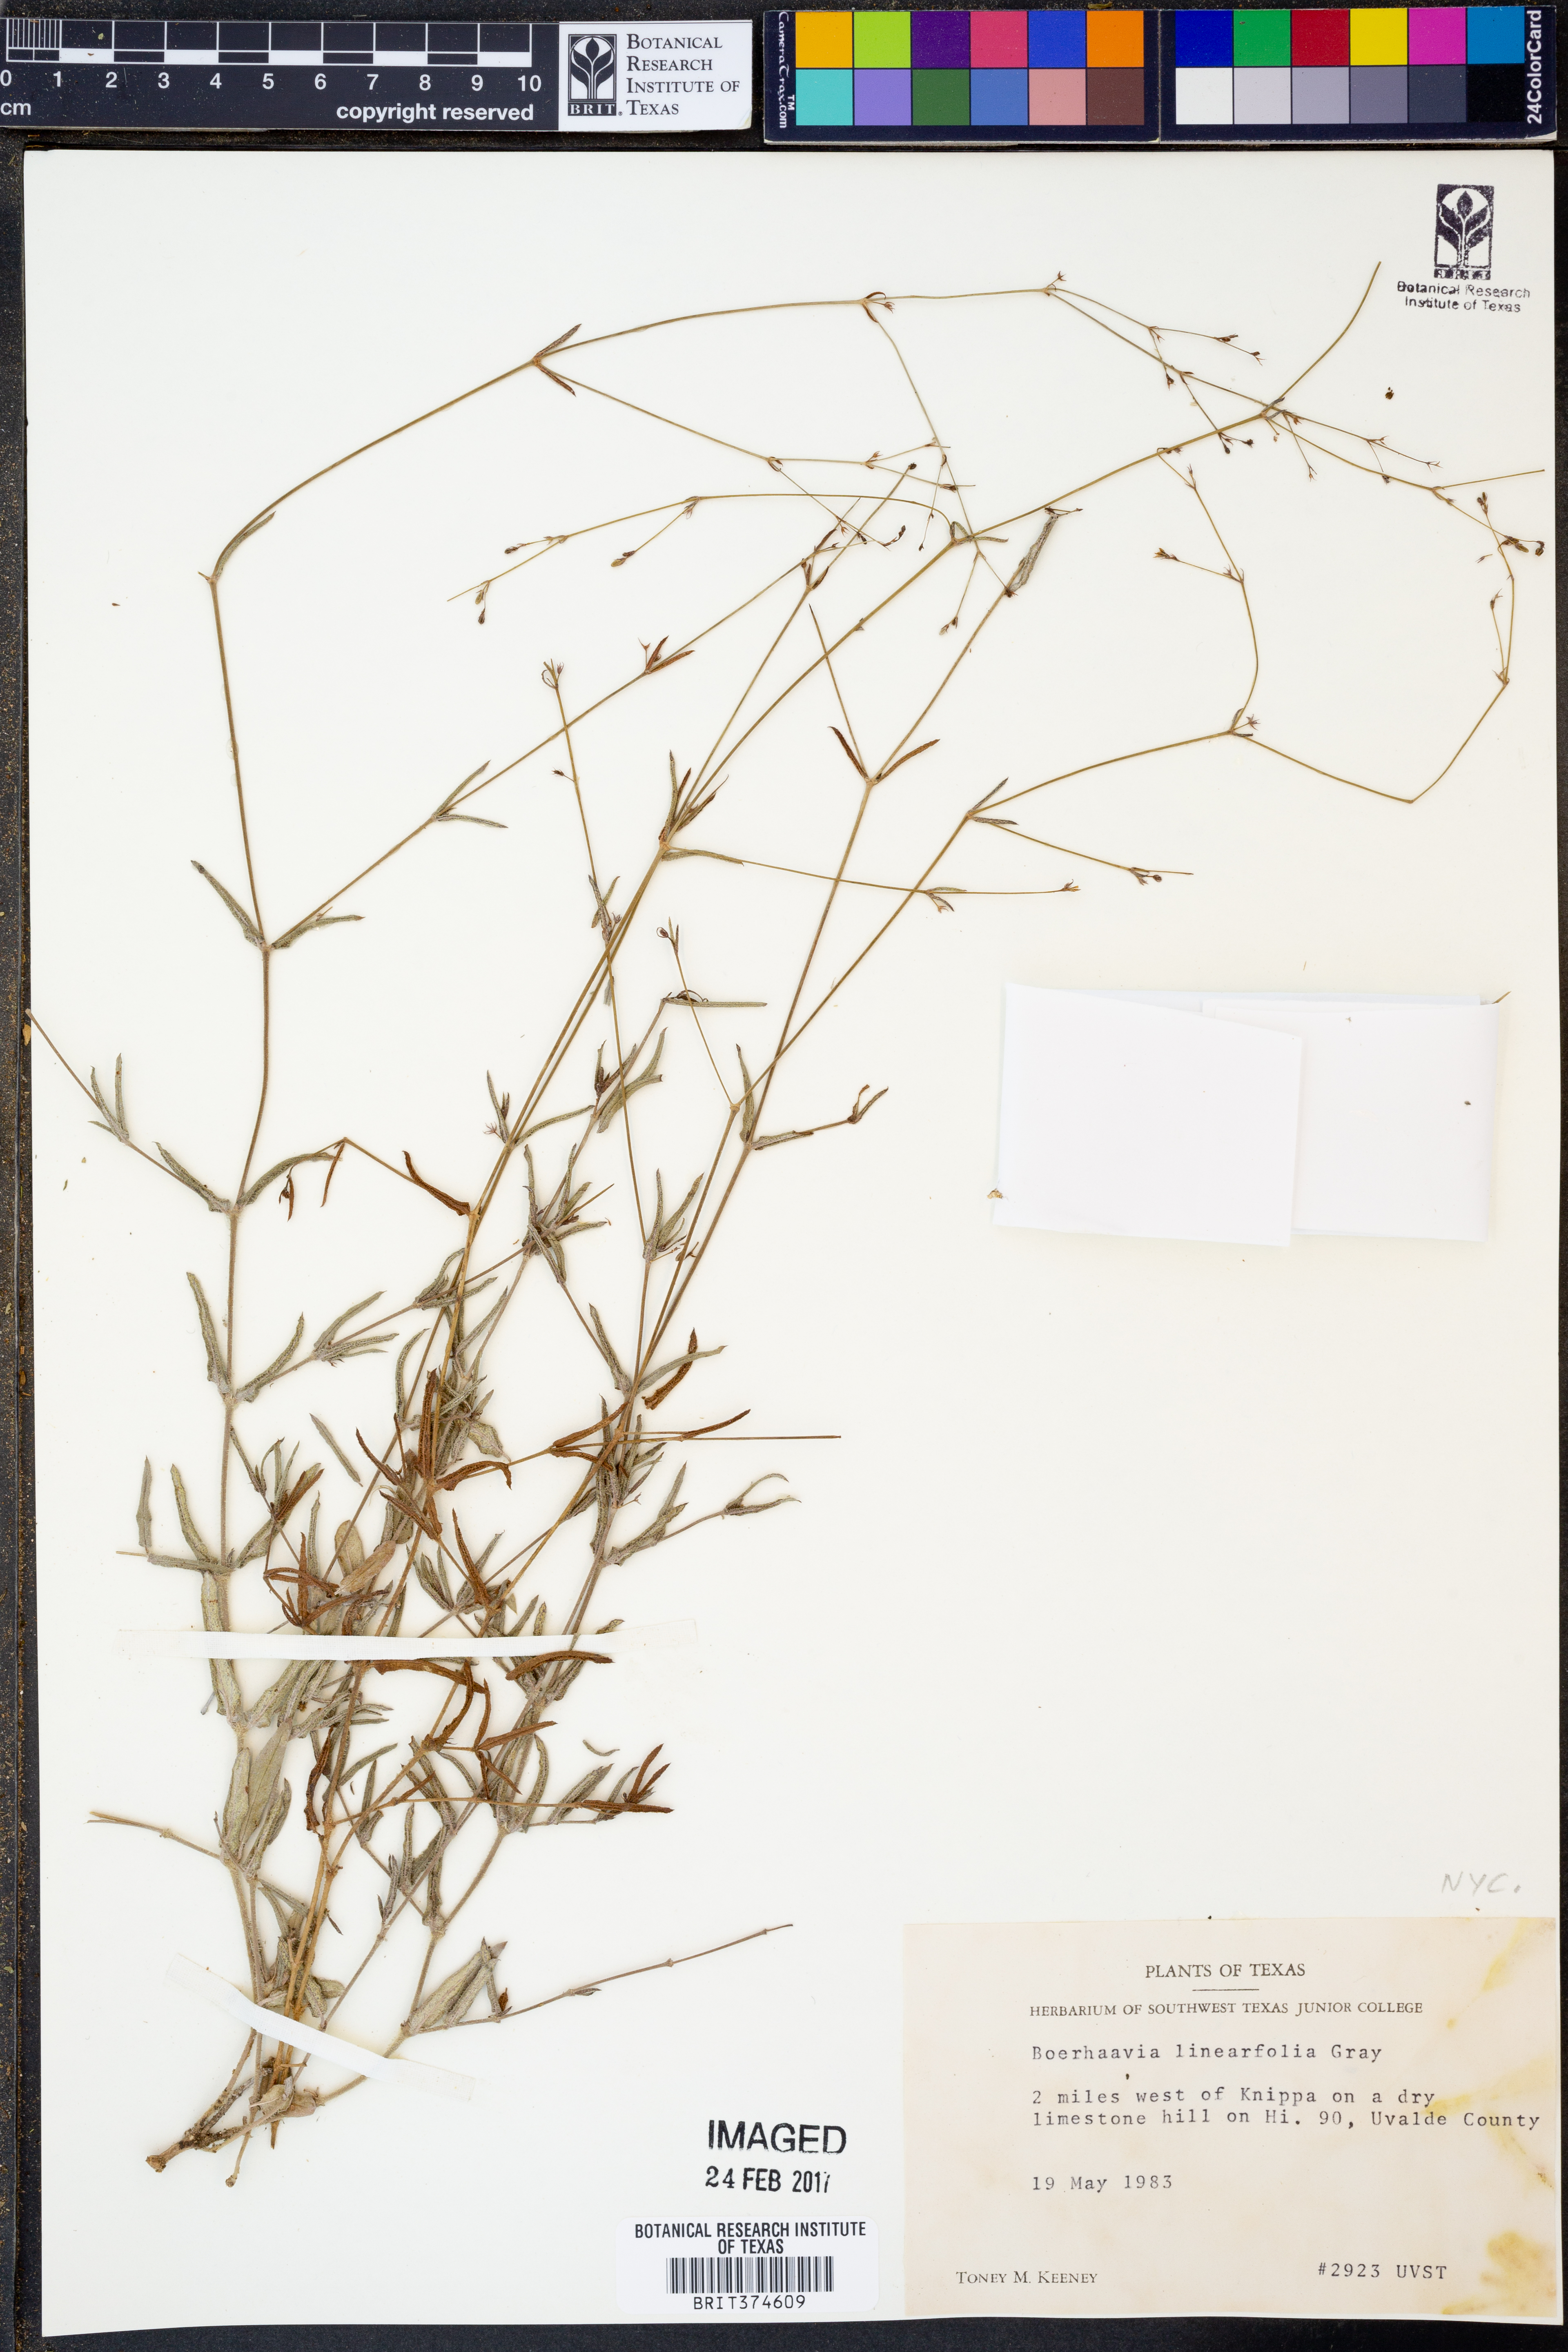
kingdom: Plantae
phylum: Tracheophyta
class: Magnoliopsida
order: Caryophyllales
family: Nyctaginaceae
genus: Boerhavia
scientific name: Boerhavia linearifolia
